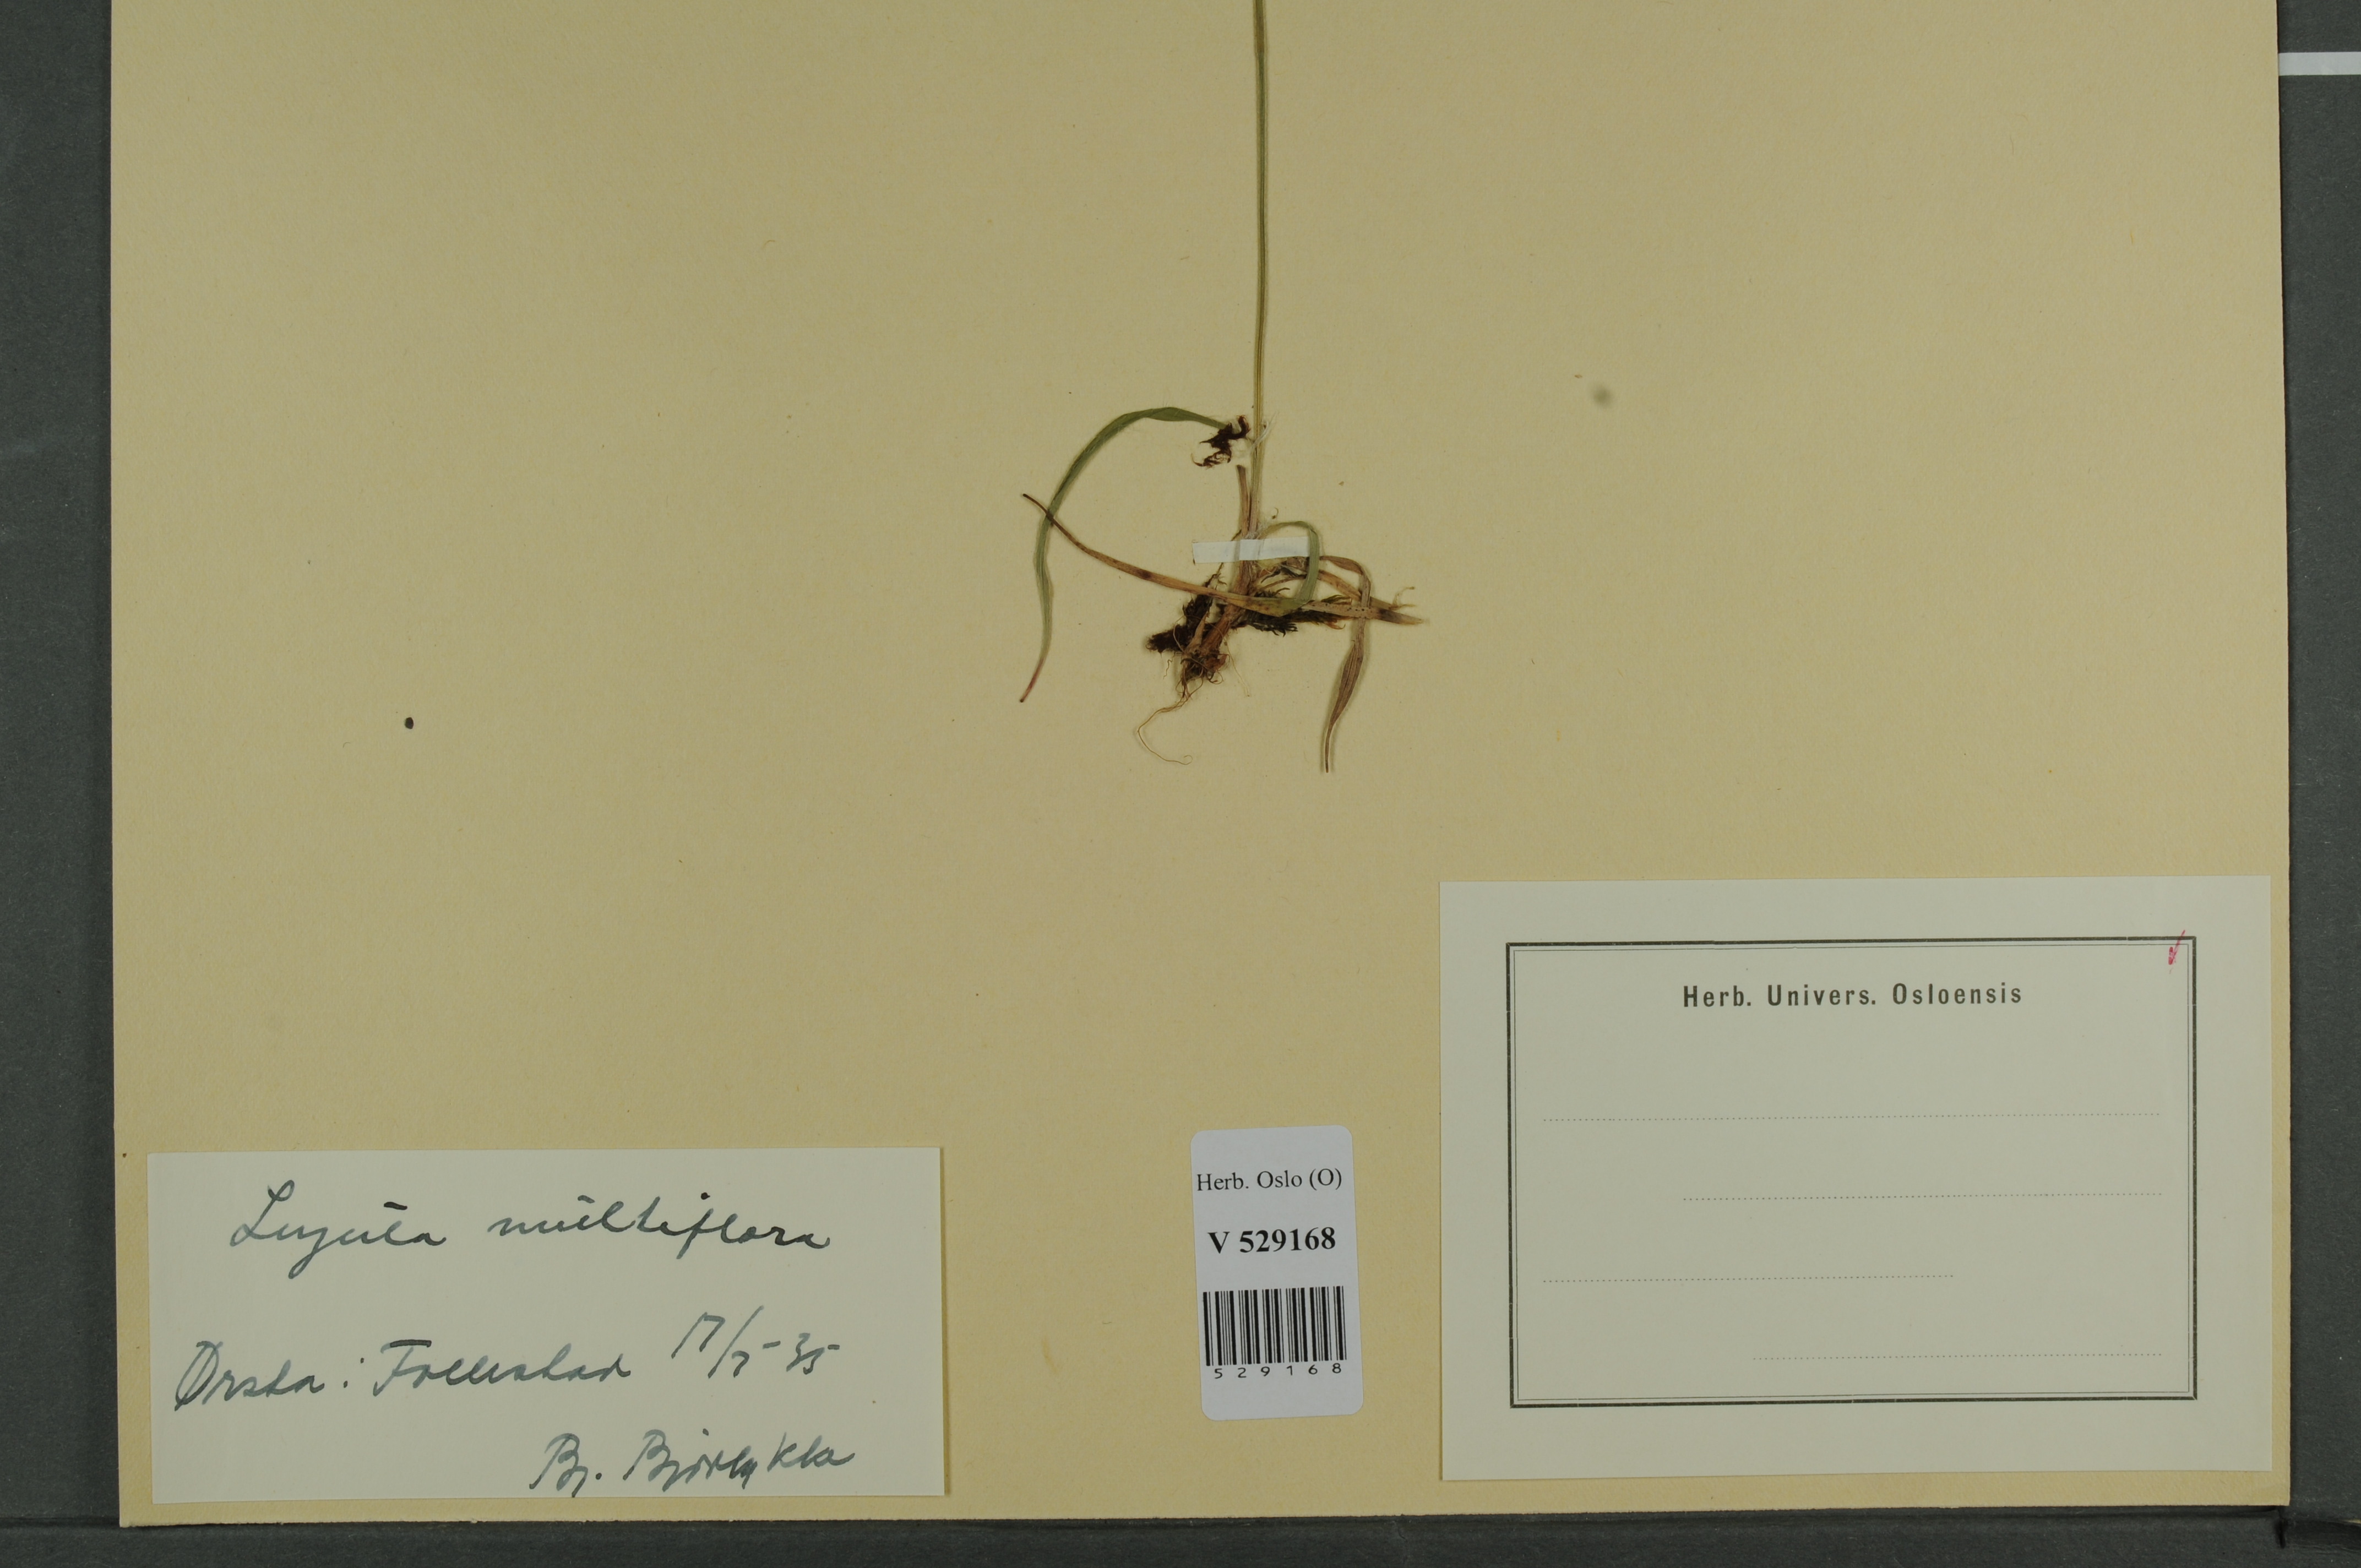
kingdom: Plantae
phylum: Tracheophyta
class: Liliopsida
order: Poales
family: Juncaceae
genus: Luzula
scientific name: Luzula multiflora
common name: Heath wood-rush
